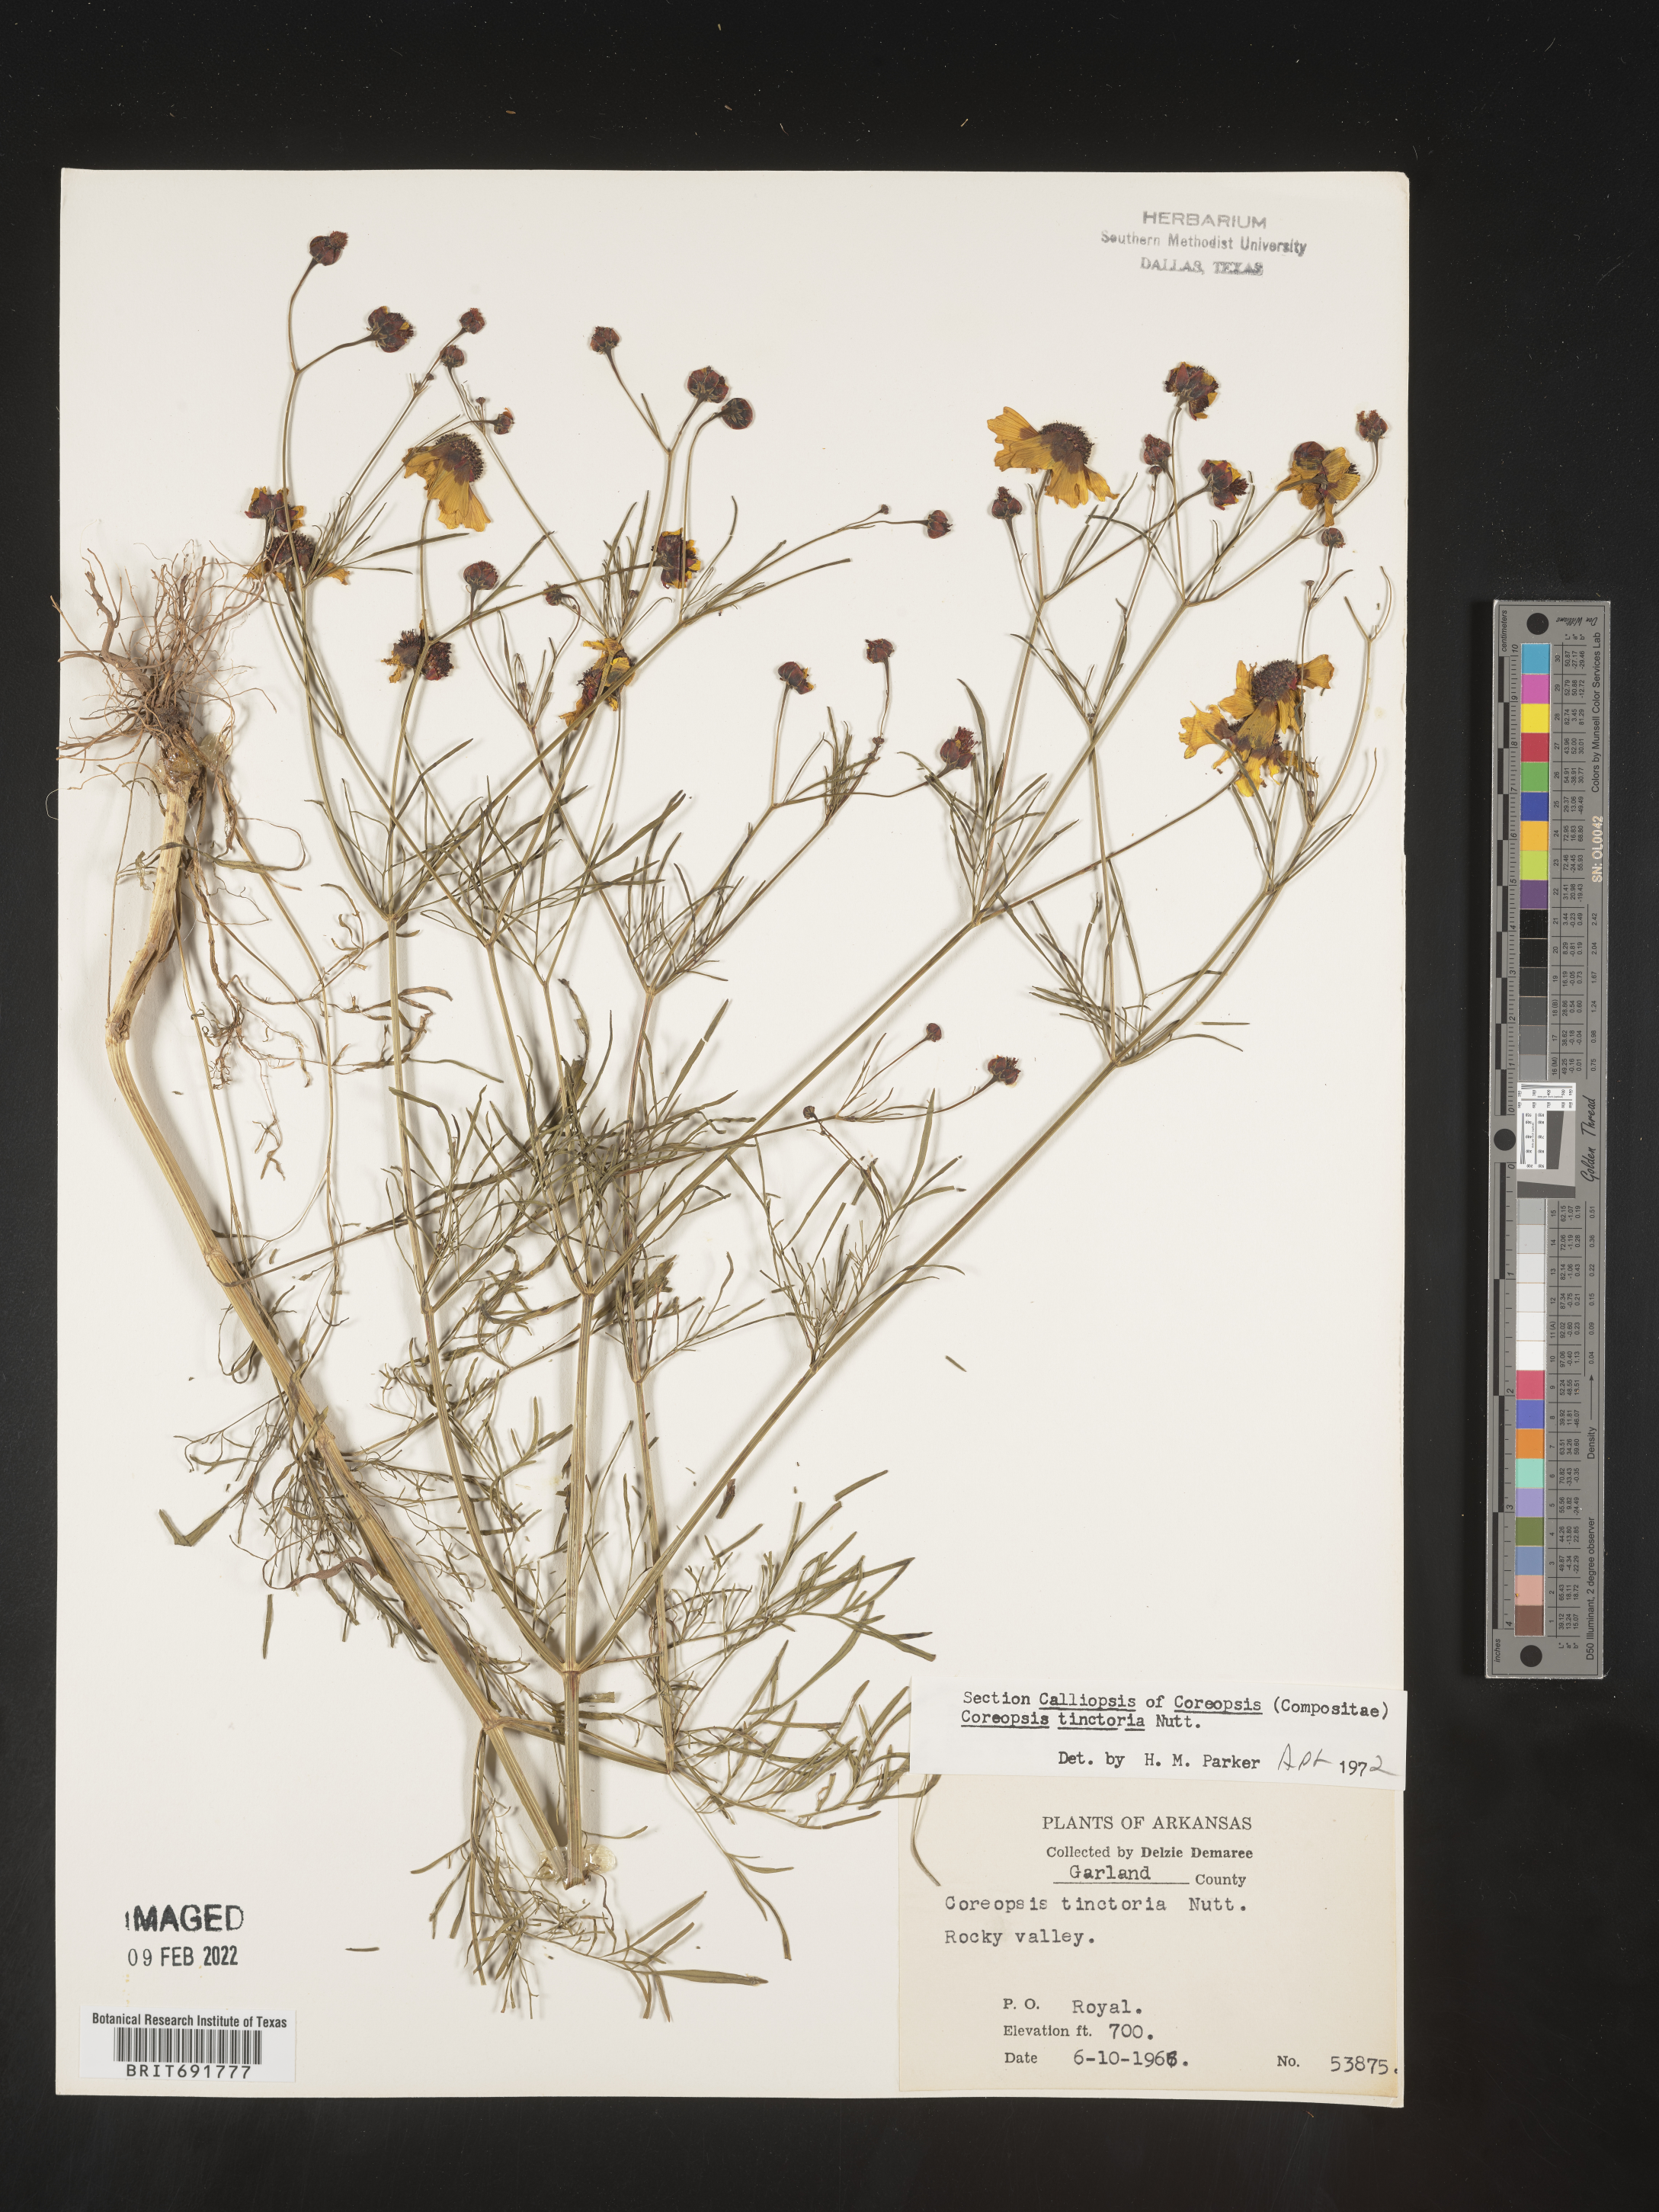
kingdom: Plantae
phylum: Tracheophyta
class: Magnoliopsida
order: Asterales
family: Asteraceae
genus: Coreopsis
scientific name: Coreopsis tinctoria
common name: Garden tickseed
